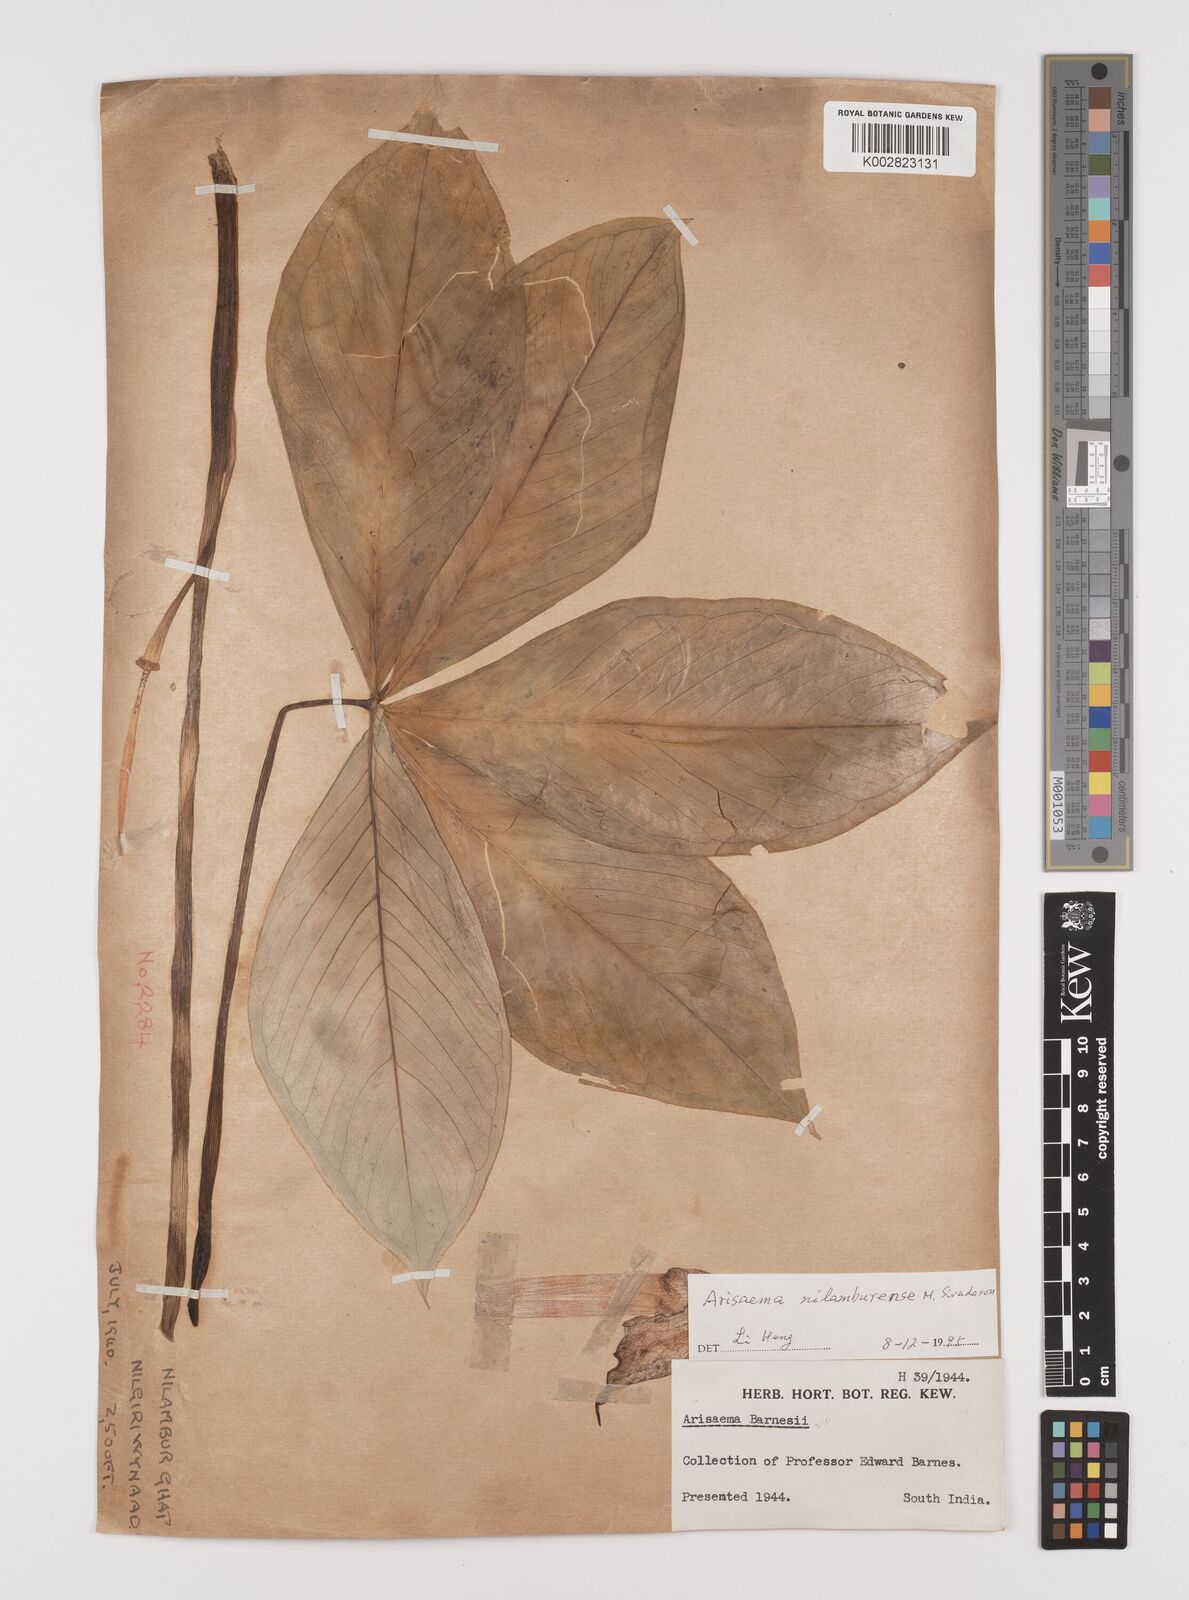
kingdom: Plantae
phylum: Tracheophyta
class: Liliopsida
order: Alismatales
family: Araceae
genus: Arisaema
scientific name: Arisaema nilamburense
